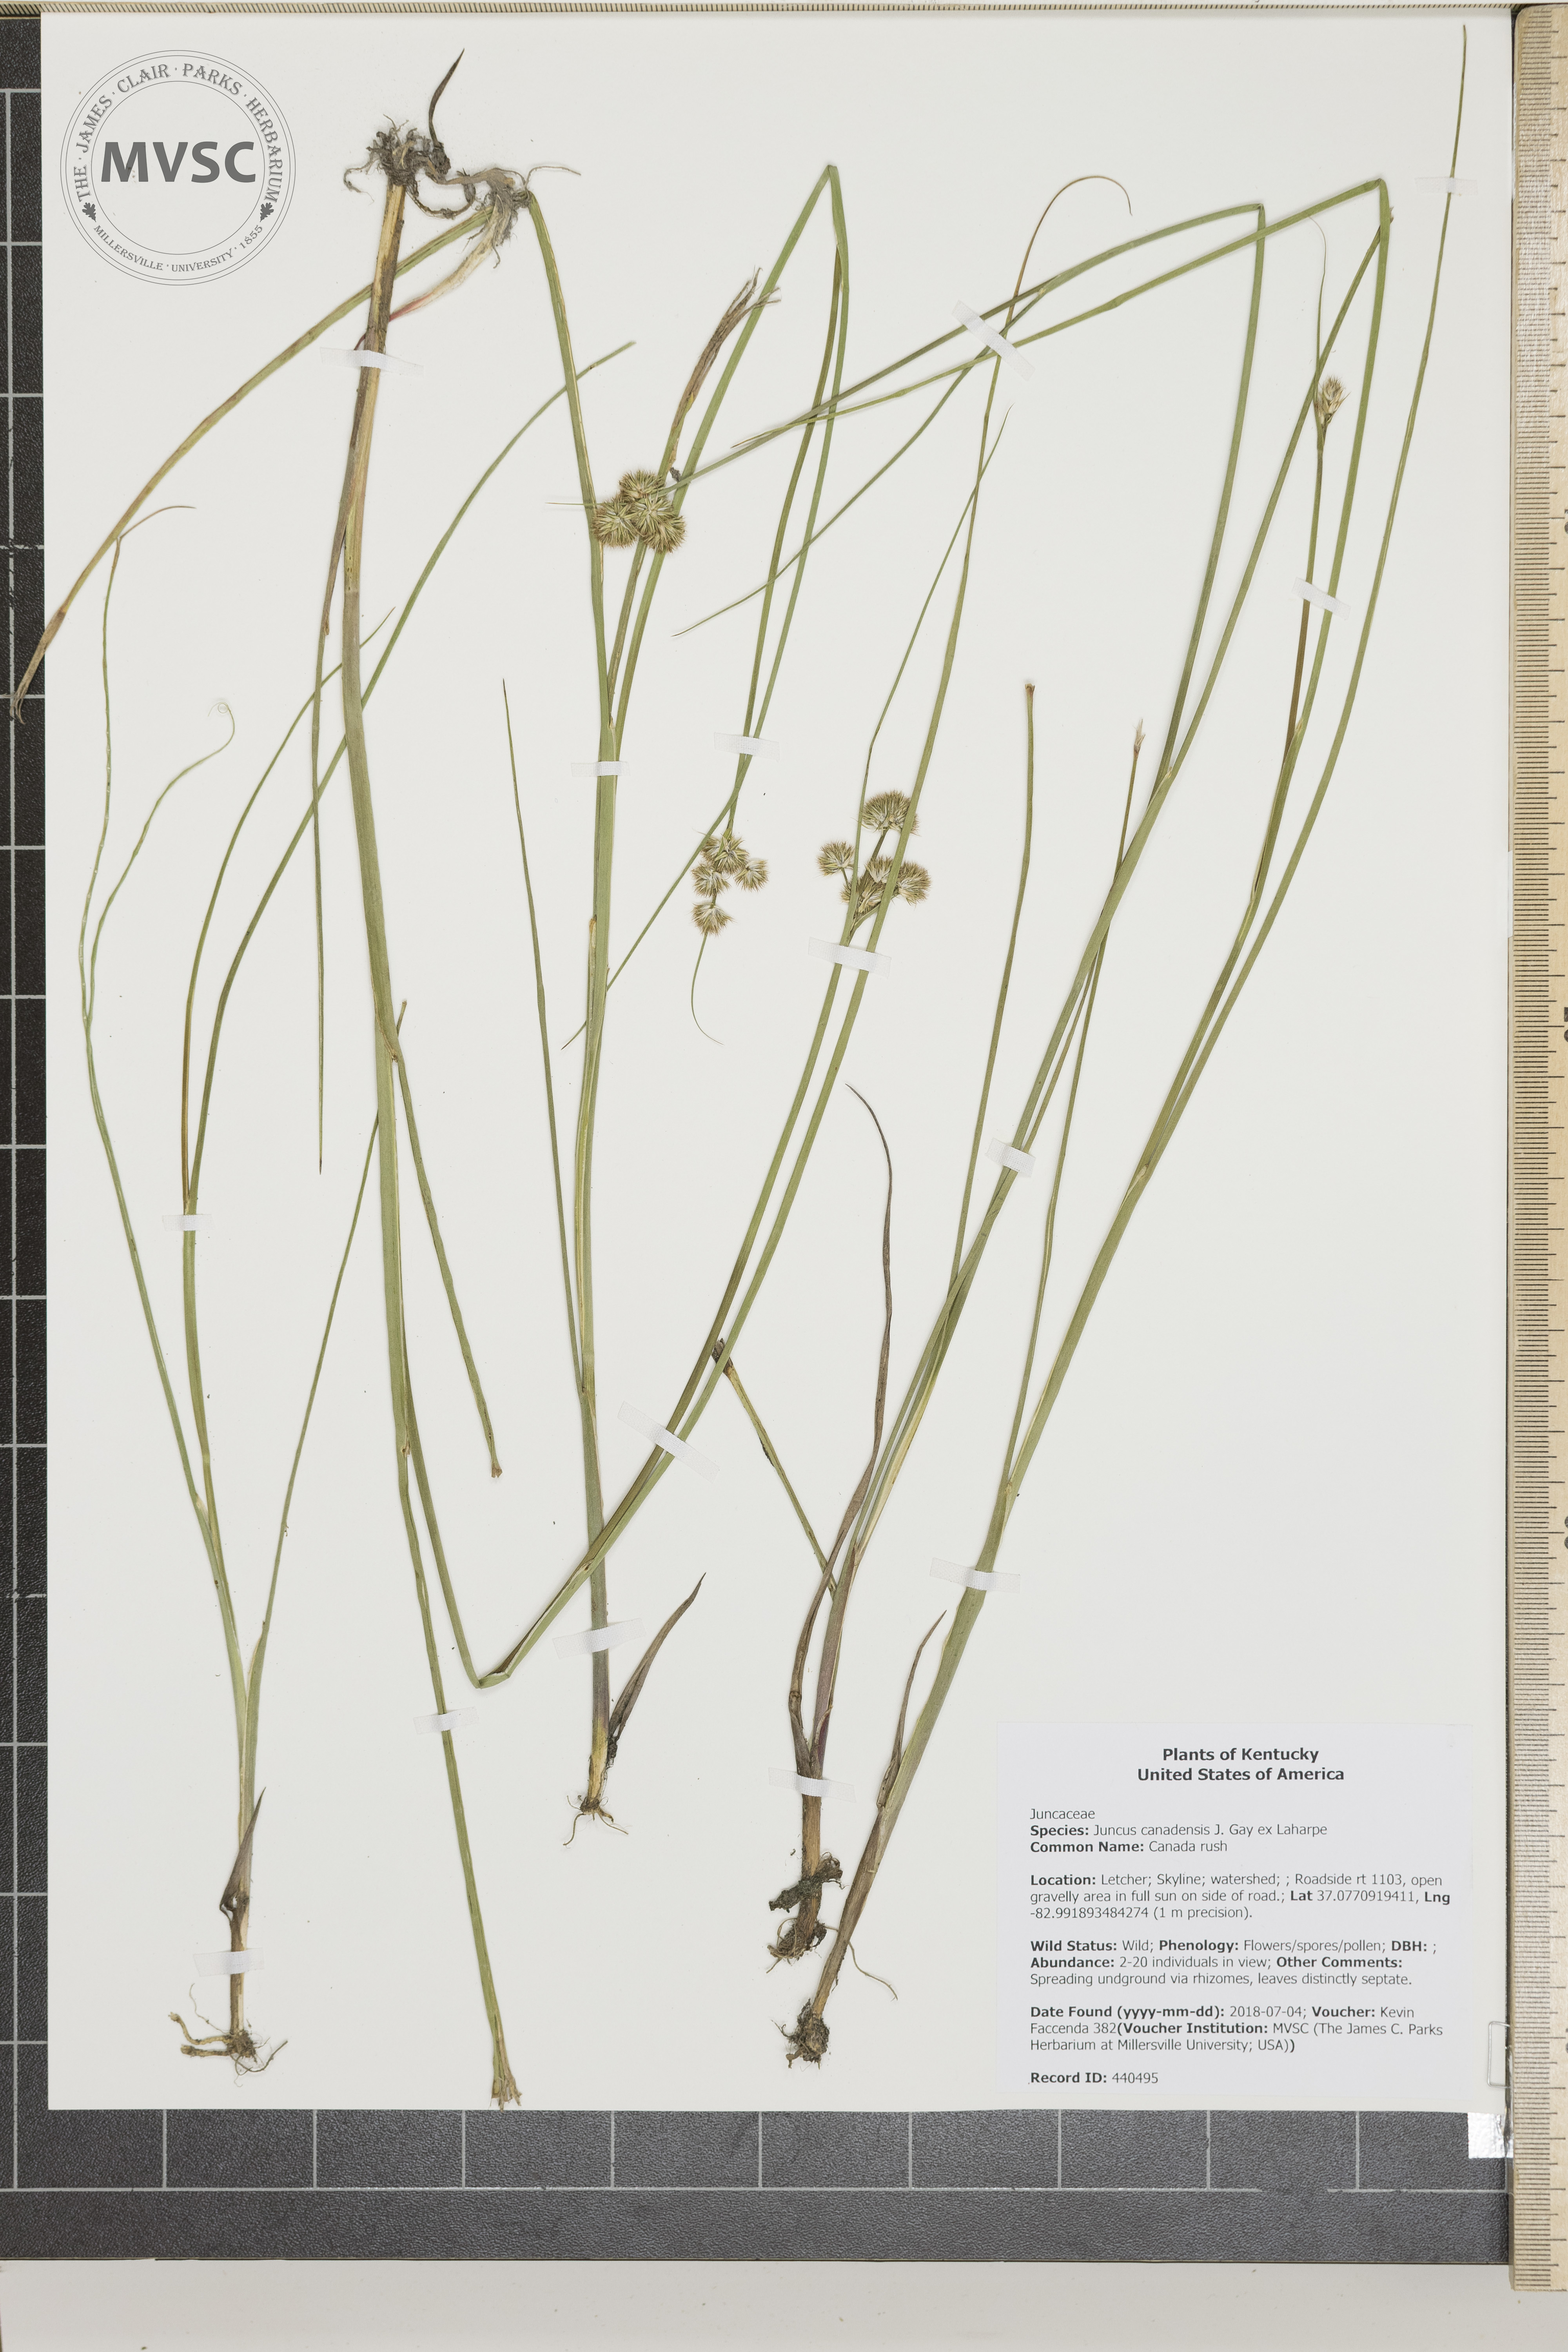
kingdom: Plantae
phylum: Tracheophyta
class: Liliopsida
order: Poales
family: Juncaceae
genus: Juncus
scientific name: Juncus canadensis
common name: Canada rush
